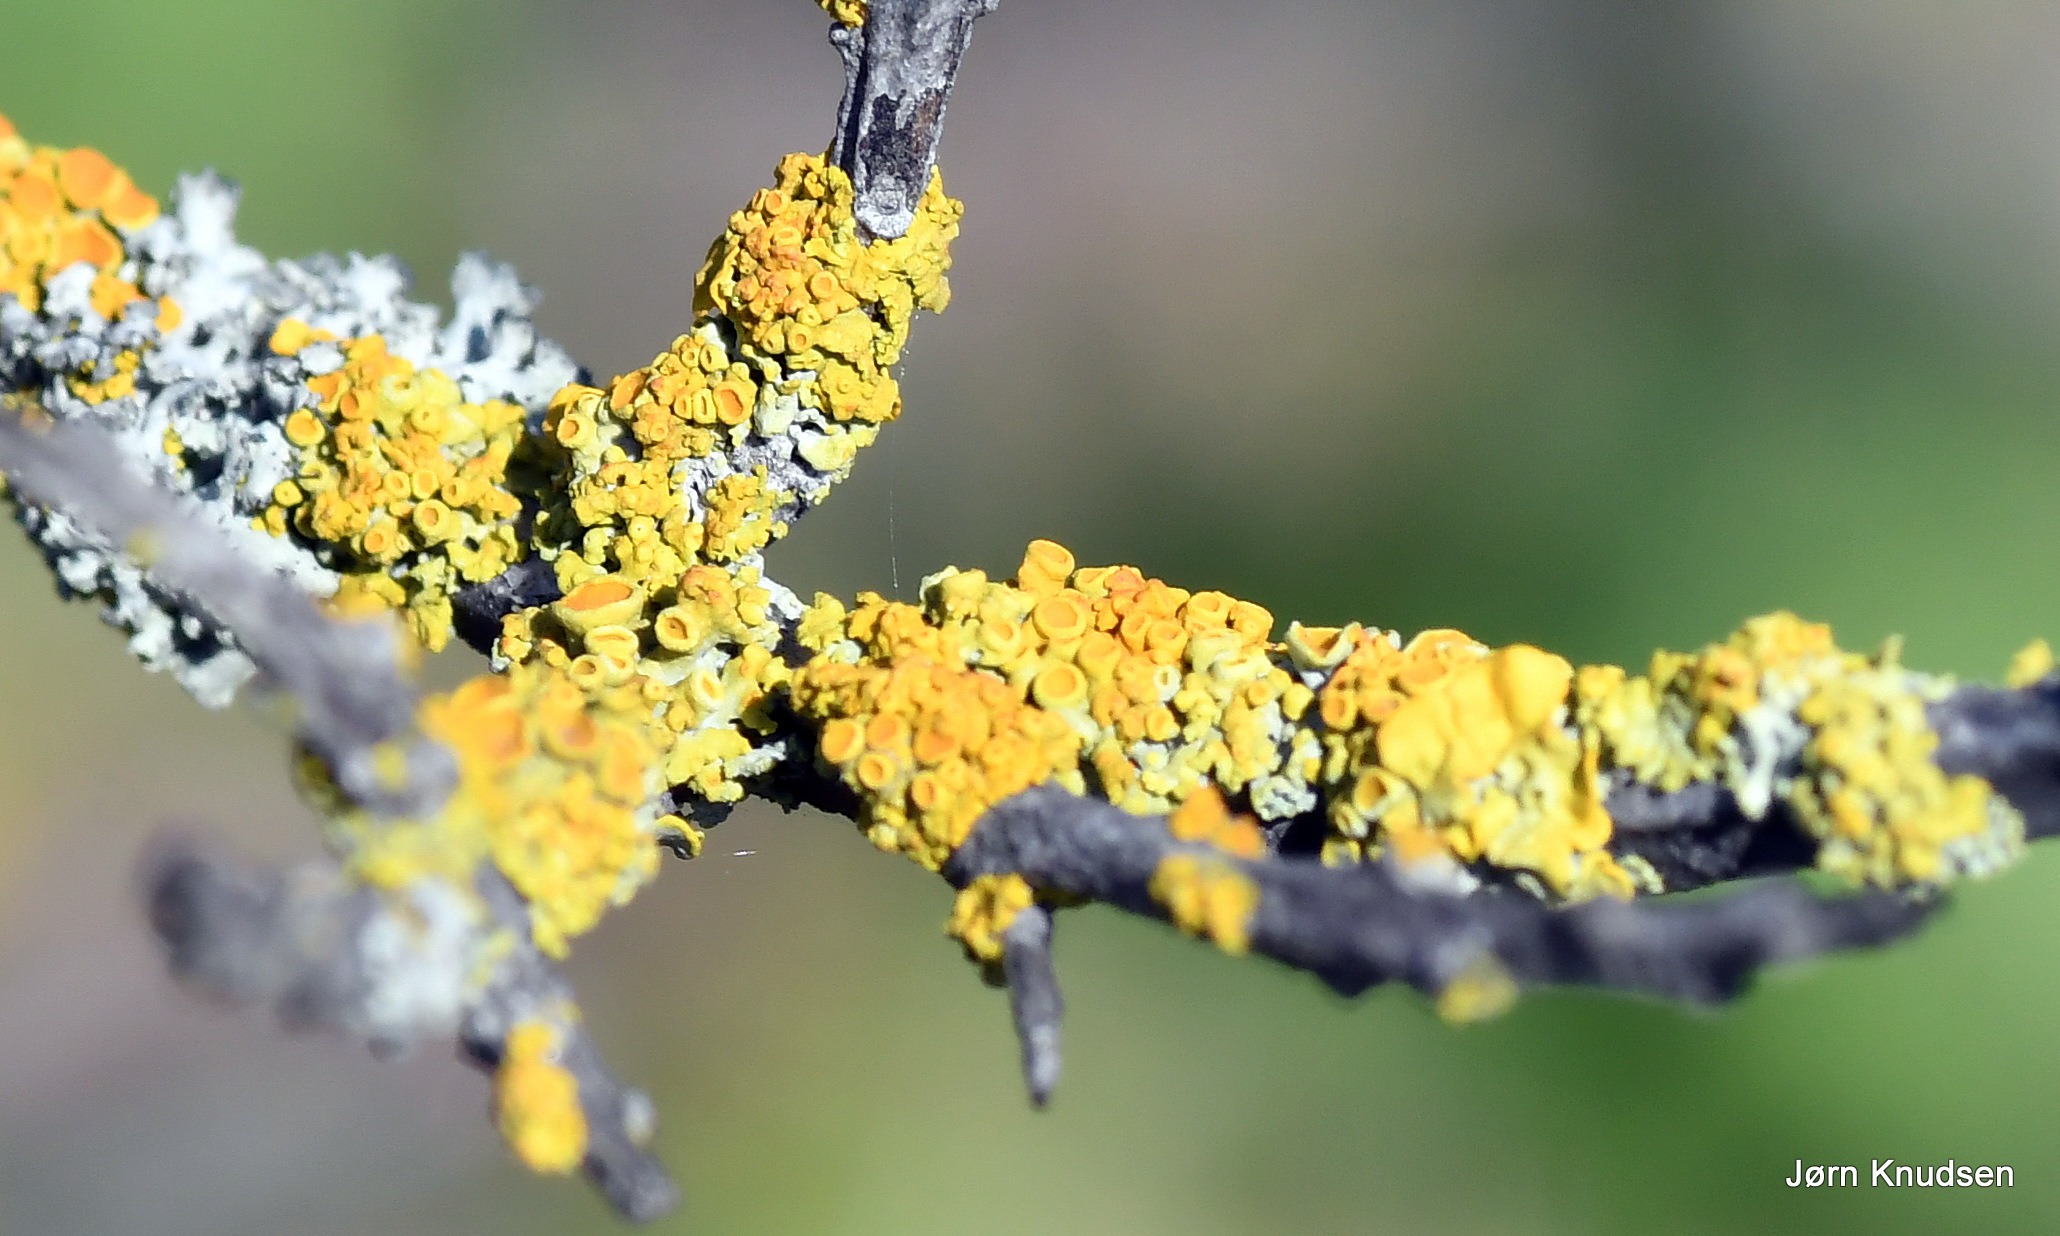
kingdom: Fungi
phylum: Ascomycota
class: Lecanoromycetes
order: Teloschistales
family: Teloschistaceae
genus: Xanthoria
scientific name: Xanthoria parietina
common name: Almindelig væggelav
